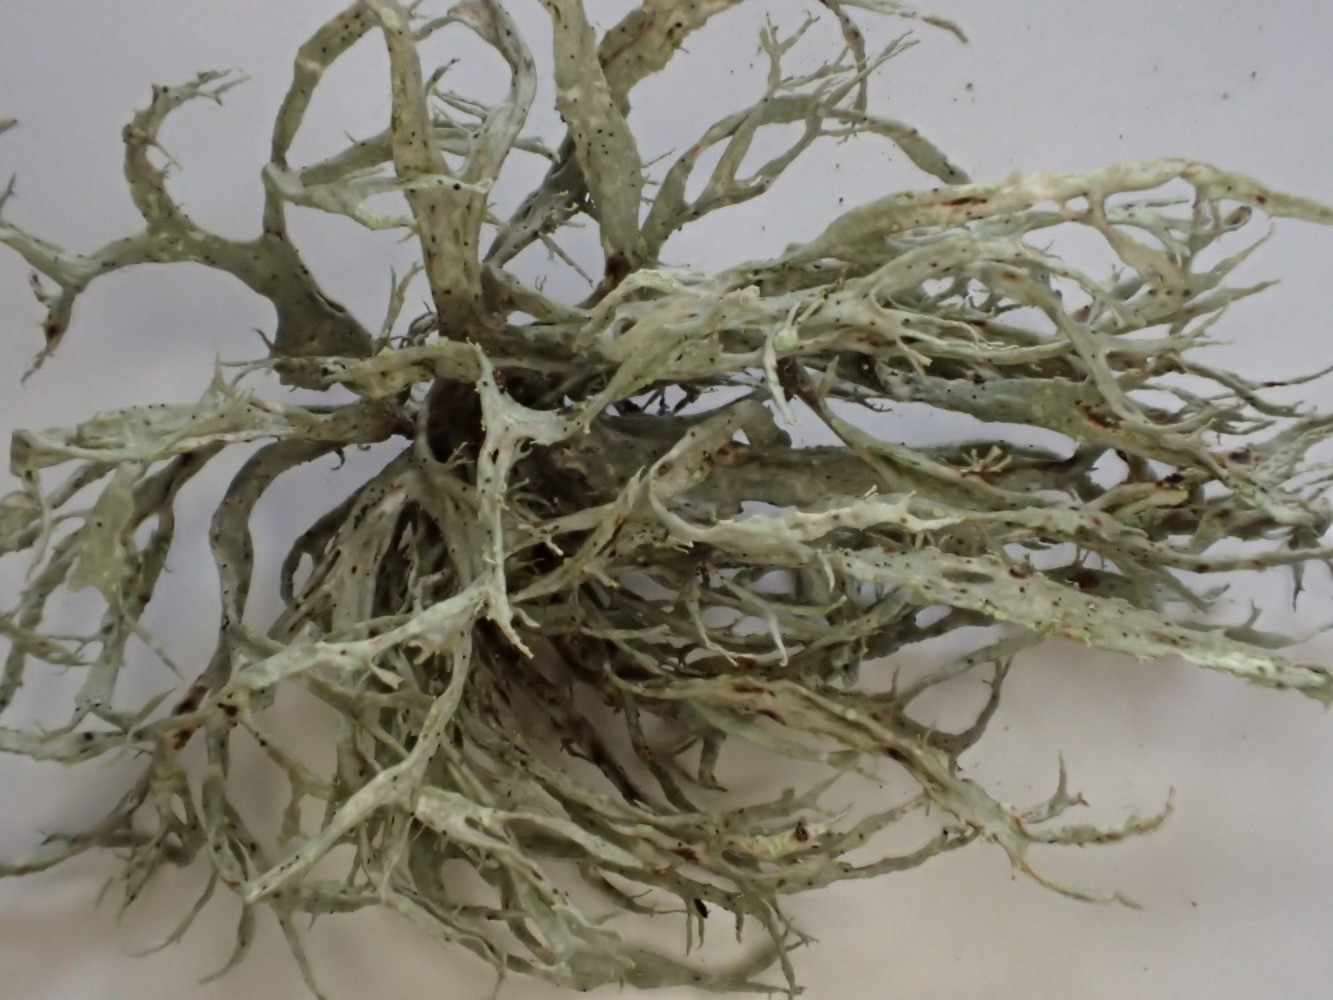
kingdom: Fungi
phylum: Ascomycota
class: Lecanoromycetes
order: Lecanorales
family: Ramalinaceae
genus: Ramalina
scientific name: Ramalina farinacea
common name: melet grenlav
